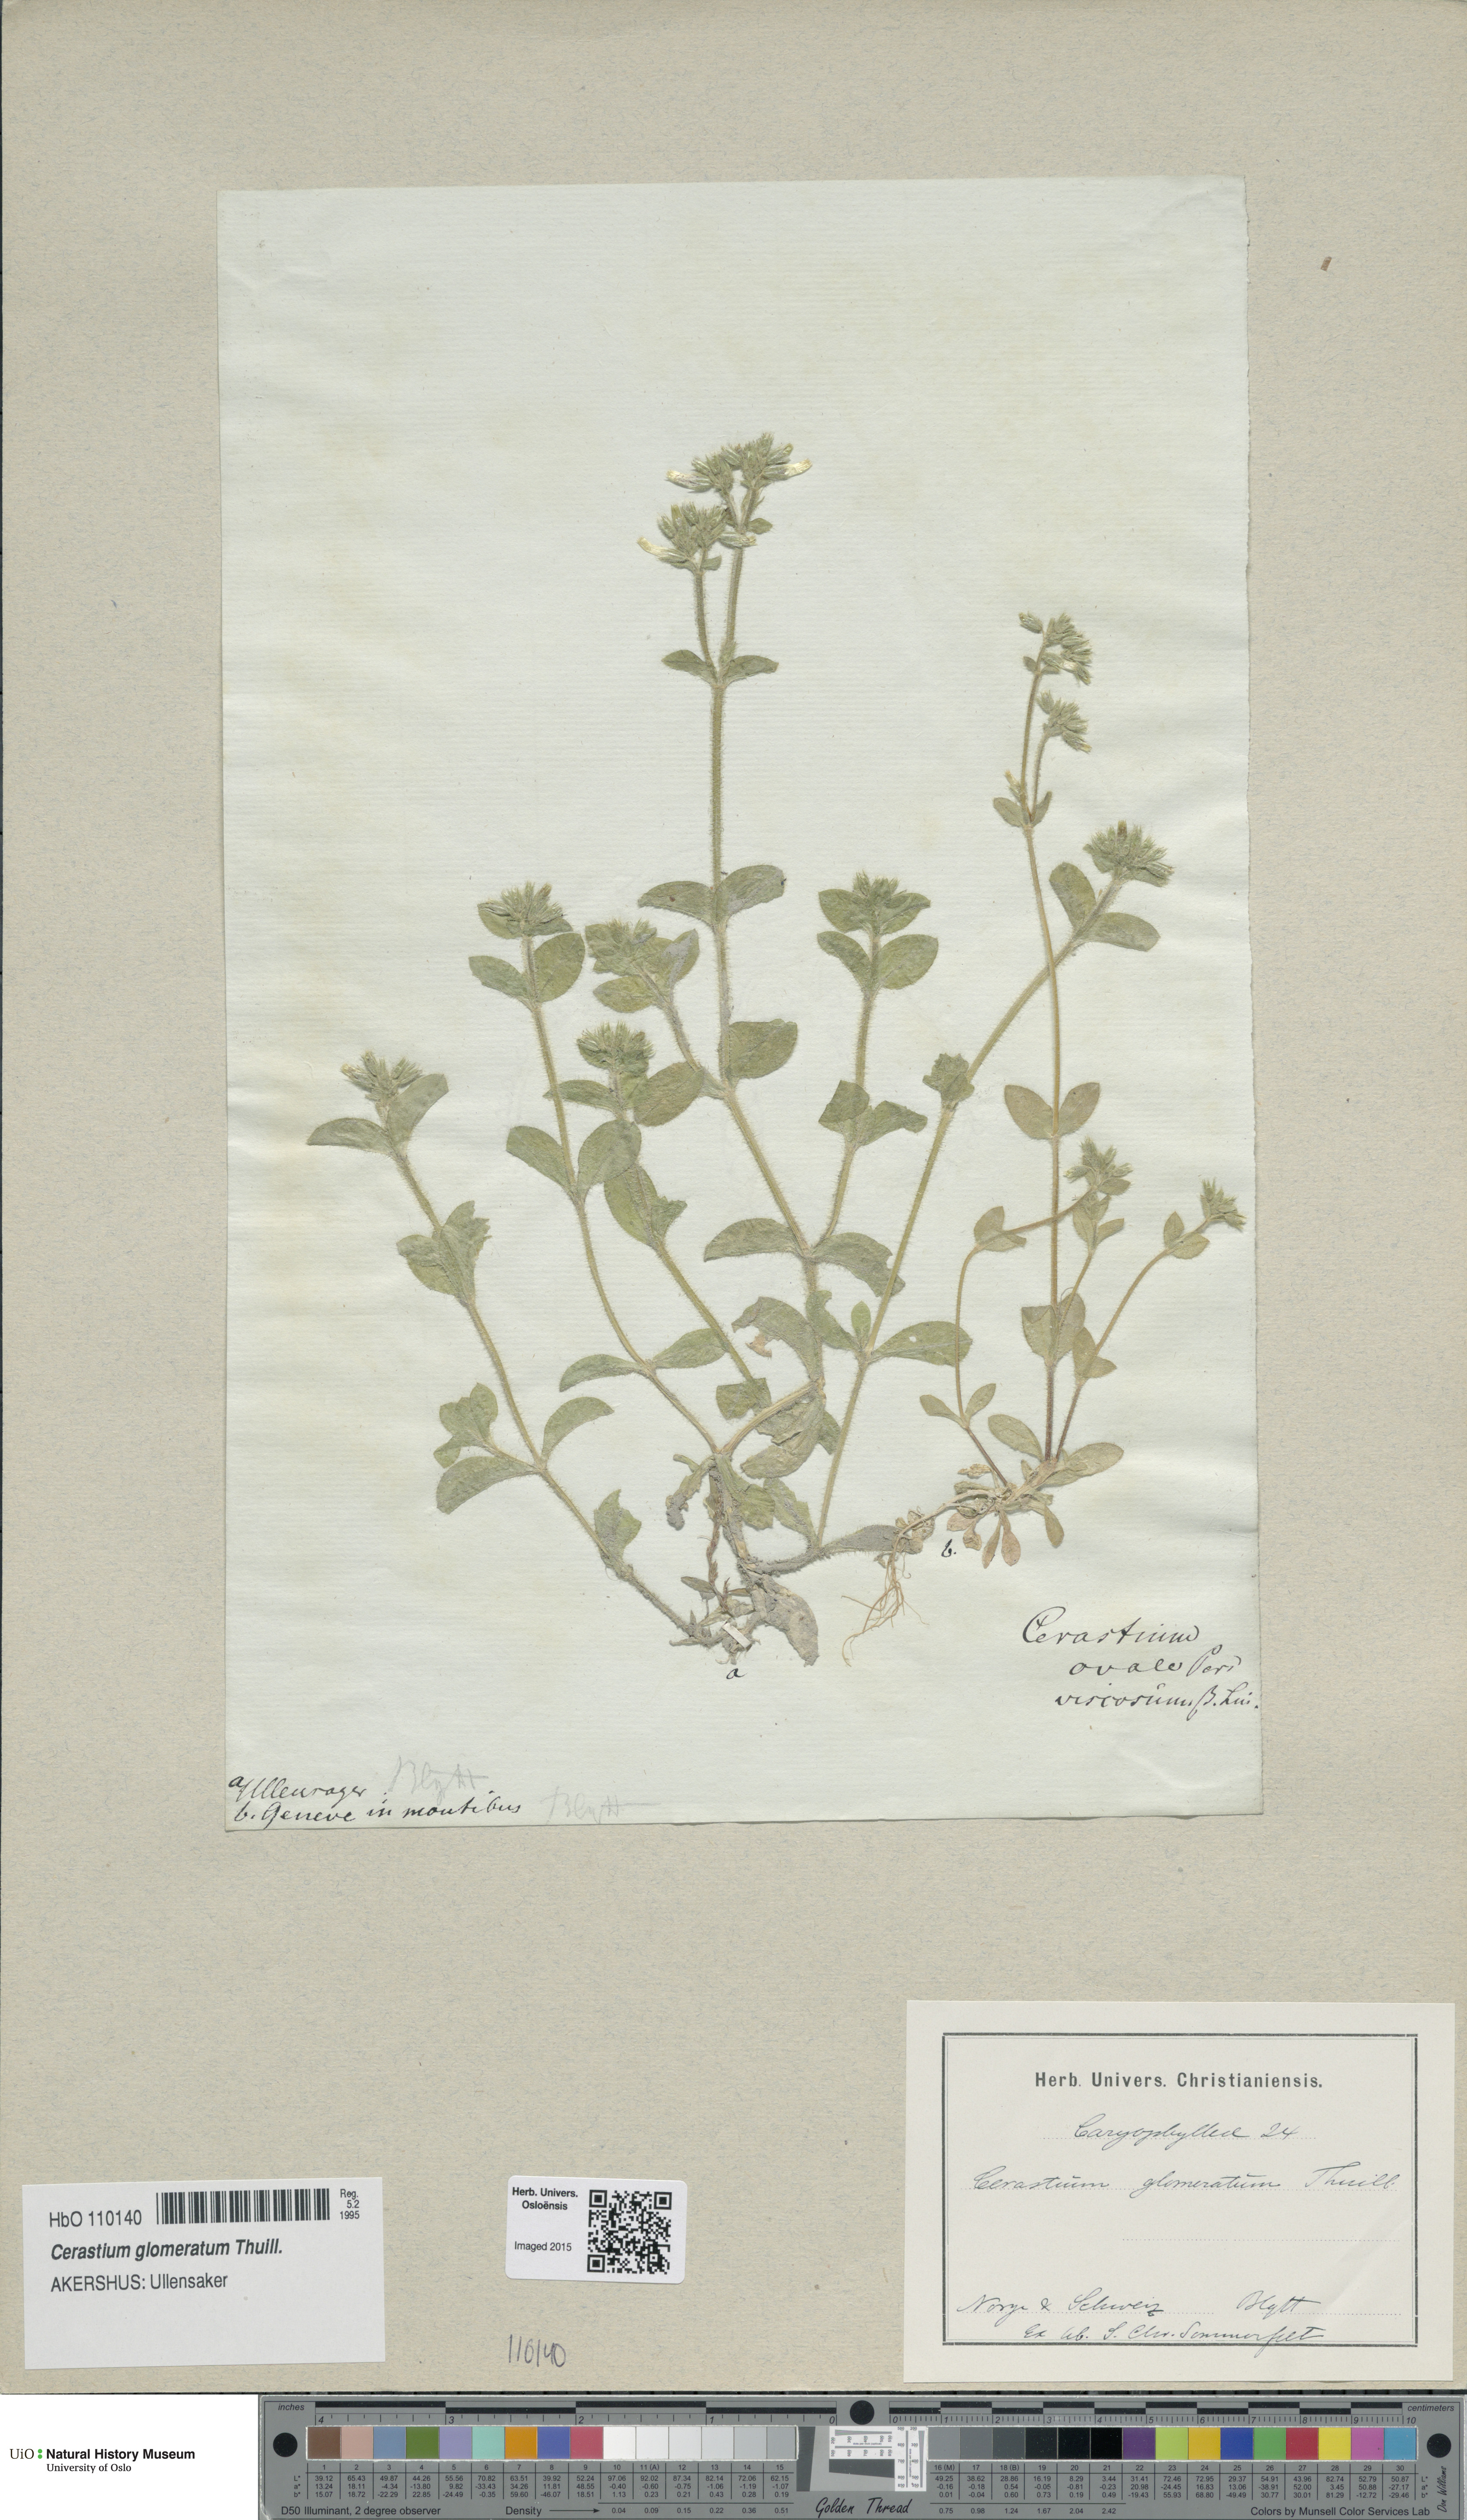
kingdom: Plantae
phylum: Tracheophyta
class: Magnoliopsida
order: Caryophyllales
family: Caryophyllaceae
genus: Cerastium
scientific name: Cerastium glomeratum
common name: Sticky chickweed
